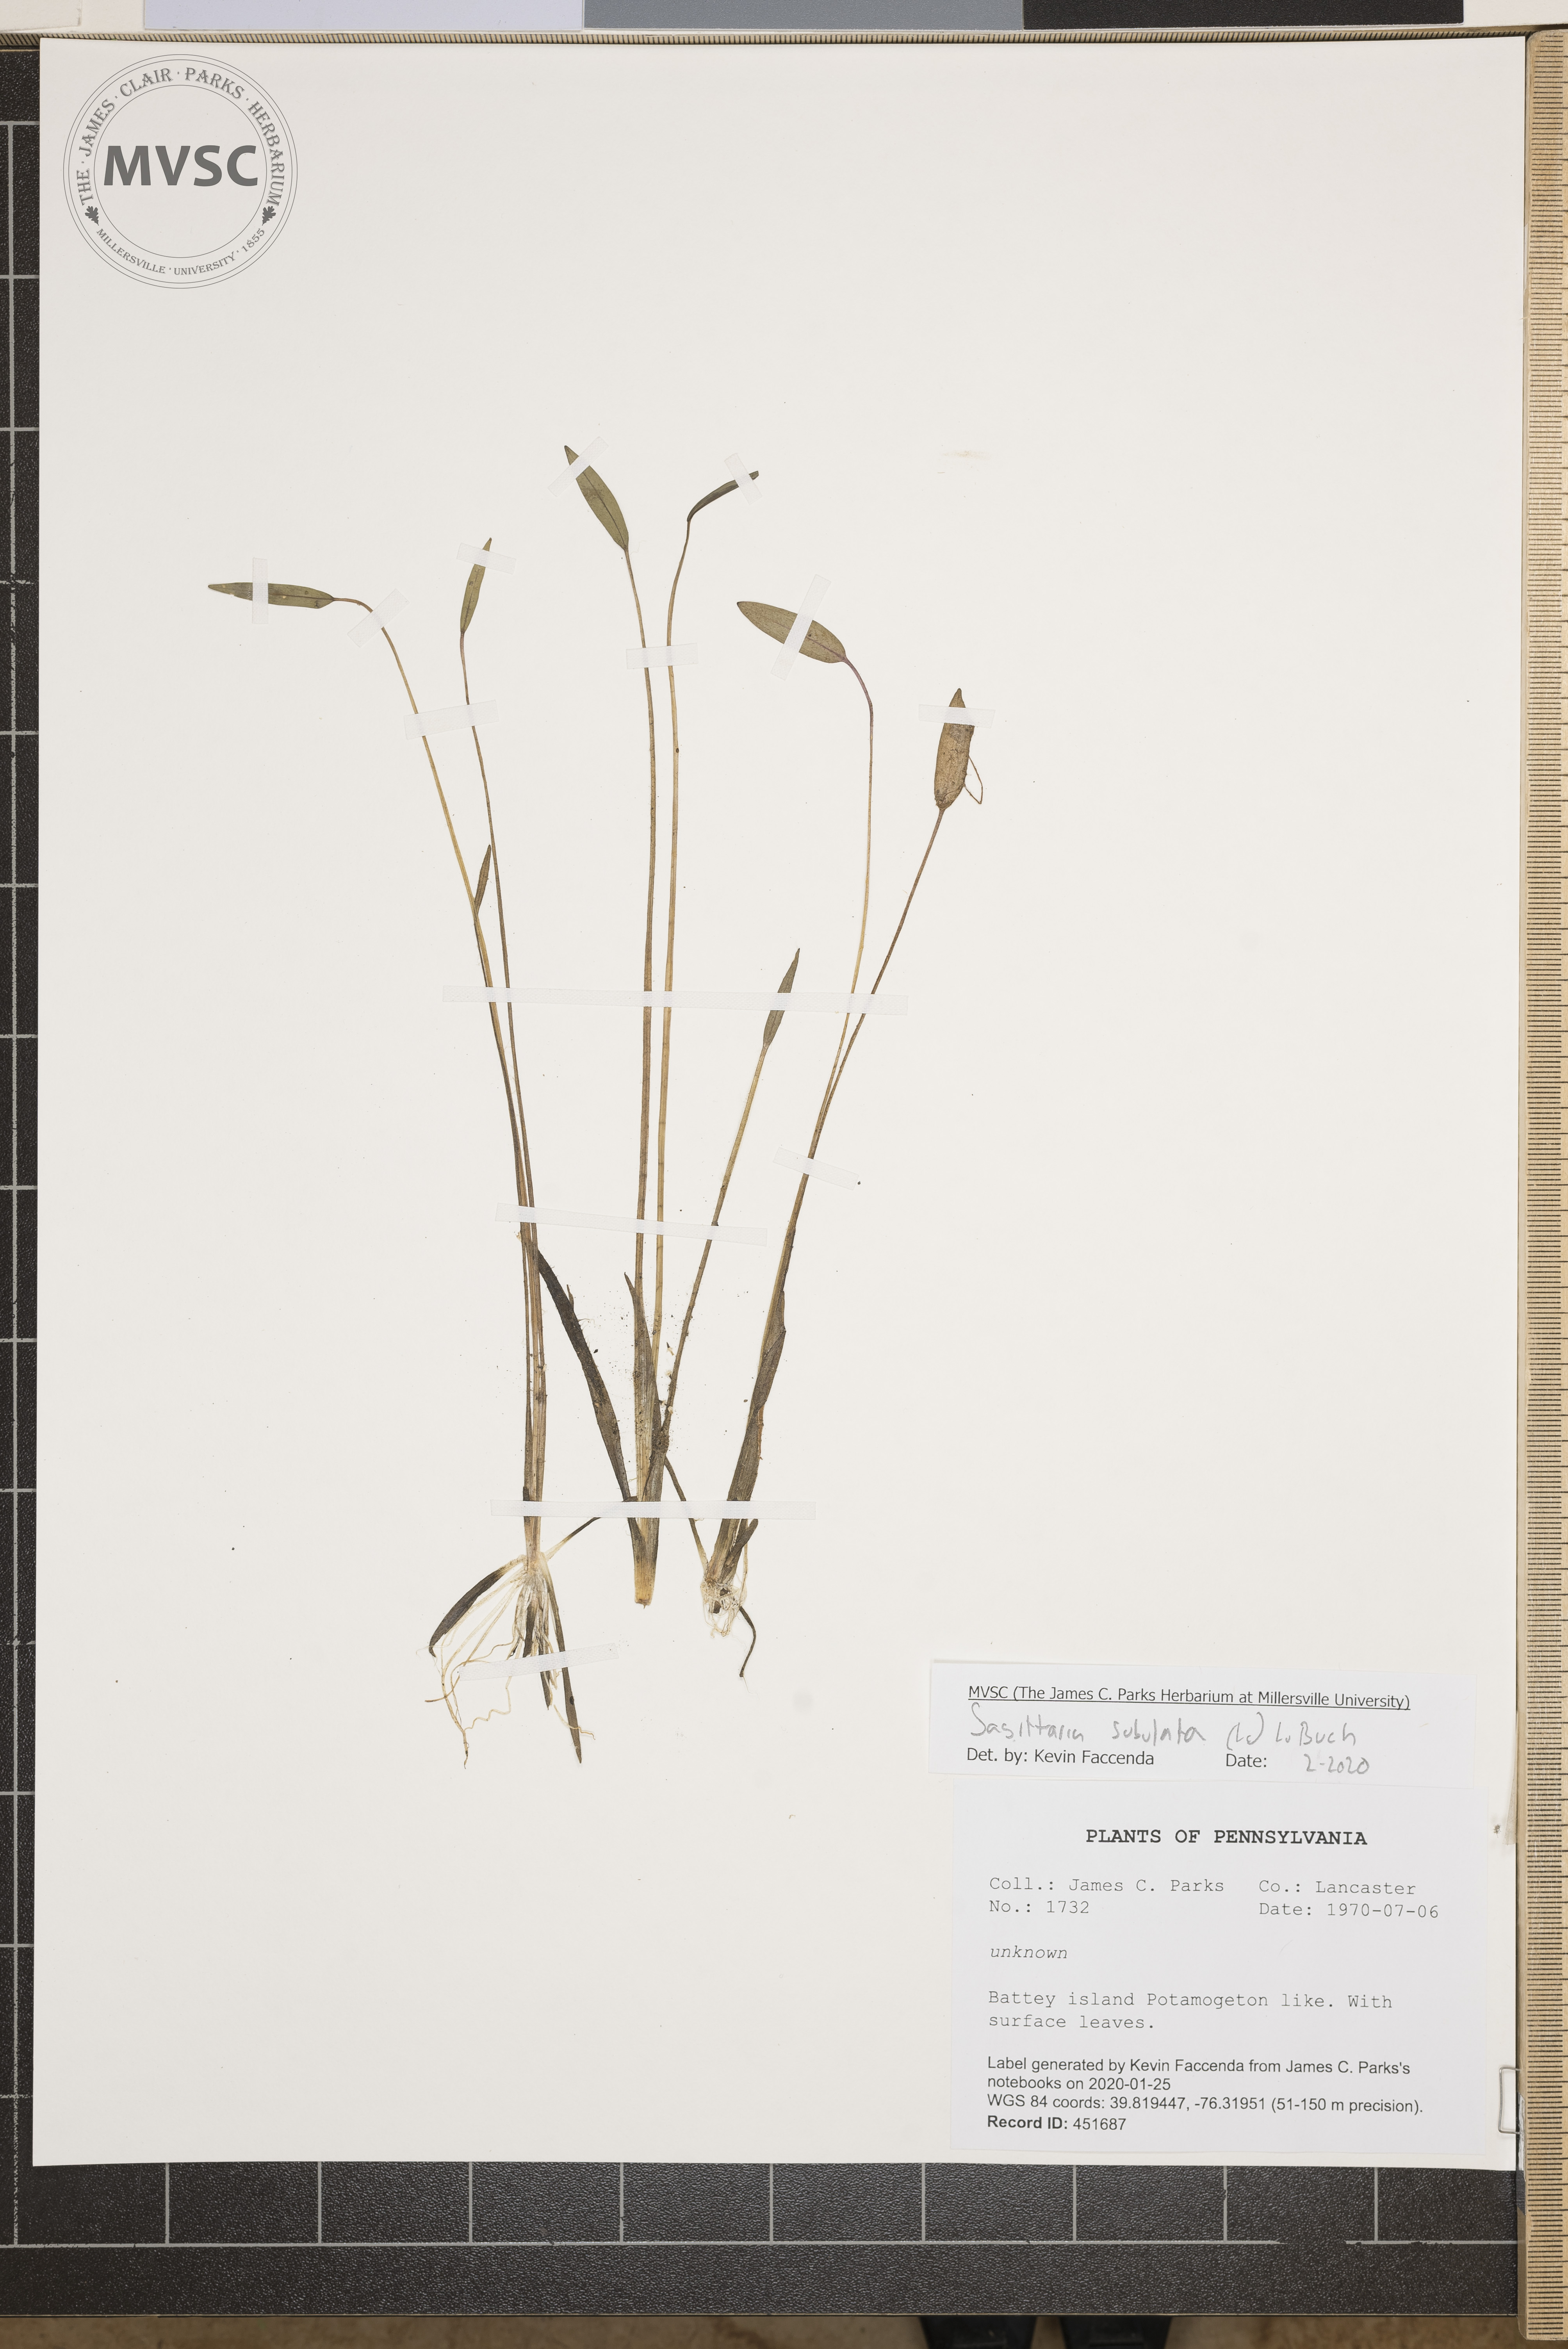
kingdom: Plantae
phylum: Tracheophyta
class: Liliopsida
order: Alismatales
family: Alismataceae
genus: Sagittaria
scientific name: Sagittaria subulata
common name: Narrow-leaved arrowhead
